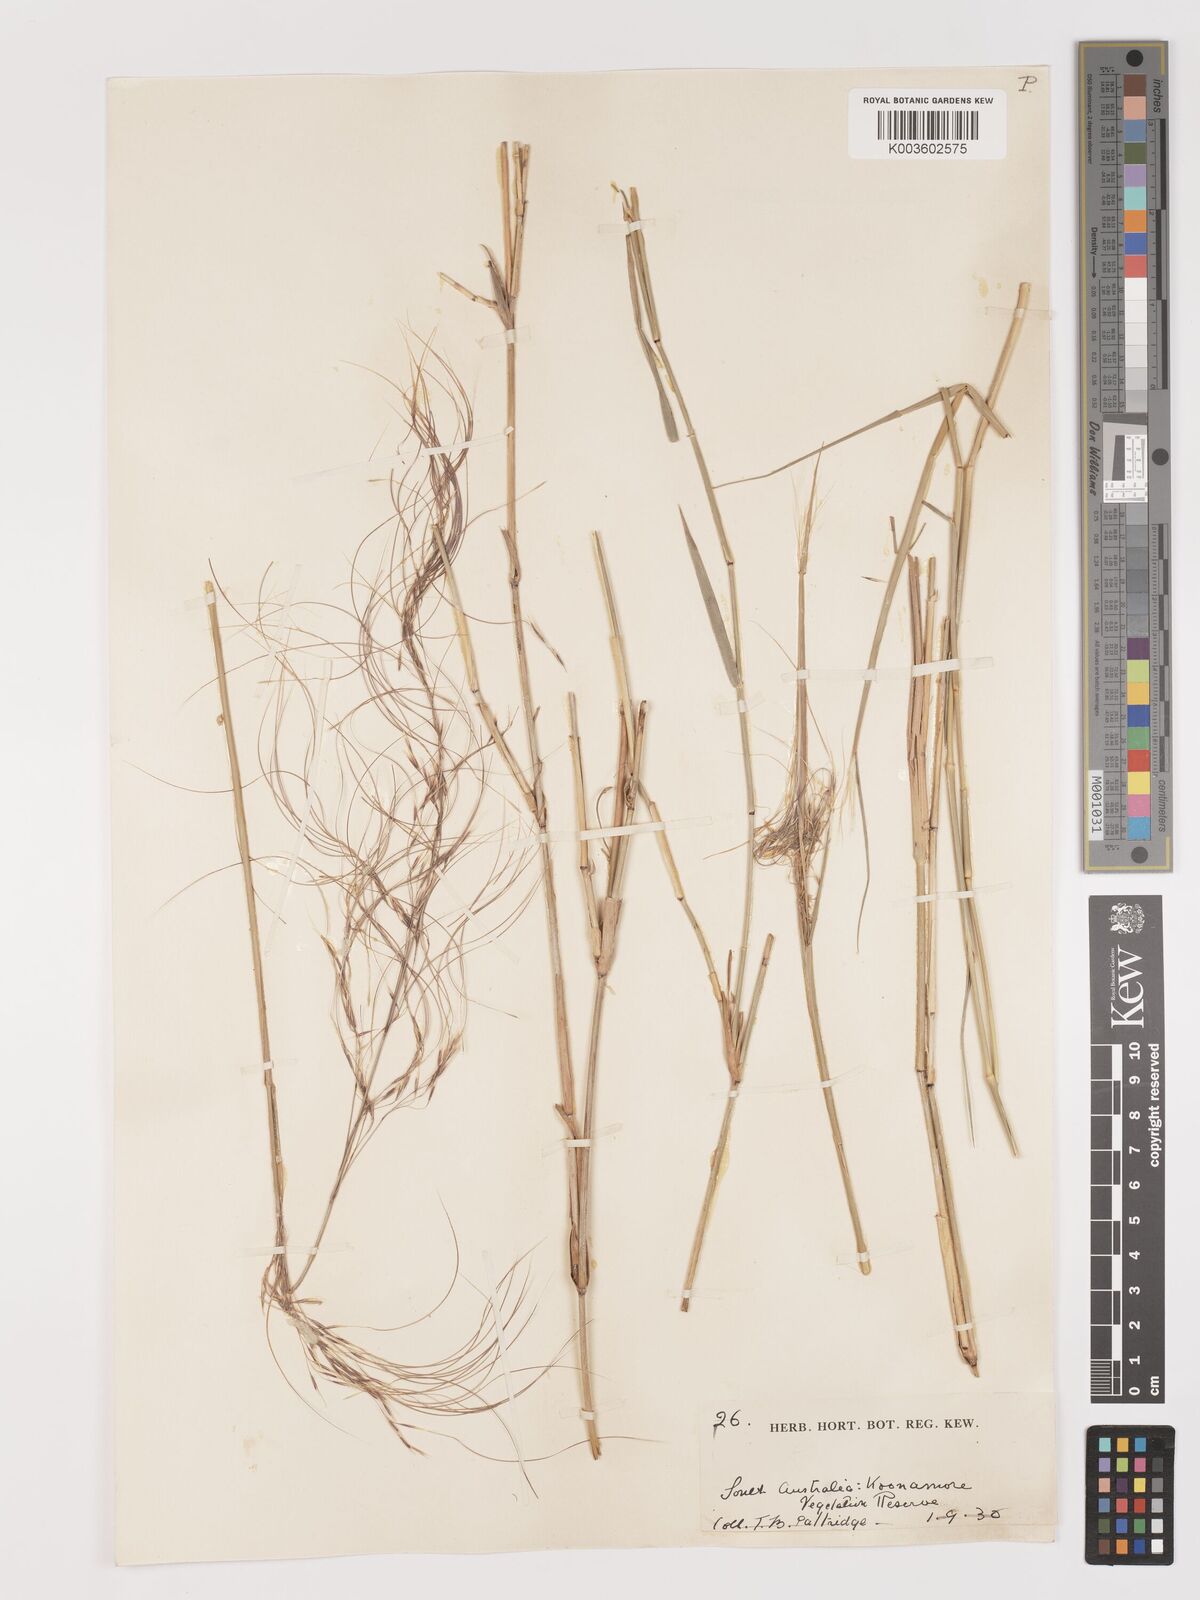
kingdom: Plantae
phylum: Tracheophyta
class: Liliopsida
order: Poales
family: Poaceae
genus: Austrostipa
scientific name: Austrostipa platychaeta
